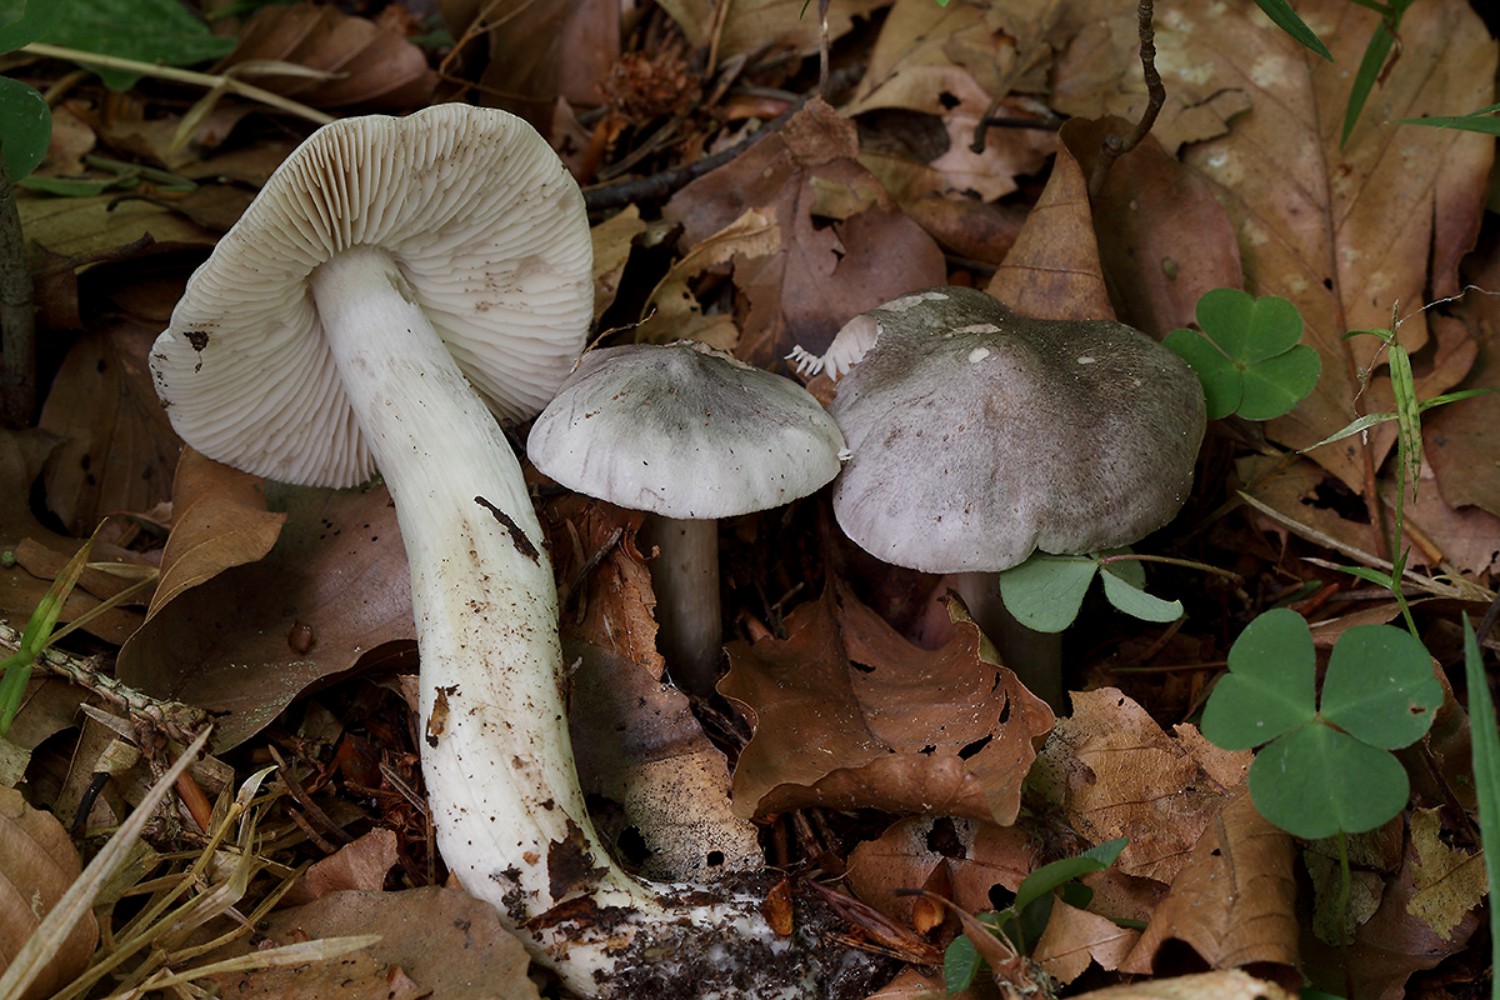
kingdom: Fungi
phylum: Basidiomycota
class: Agaricomycetes
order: Agaricales
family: Tricholomataceae
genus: Tricholoma
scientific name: Tricholoma sciodes
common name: stribet ridderhat
